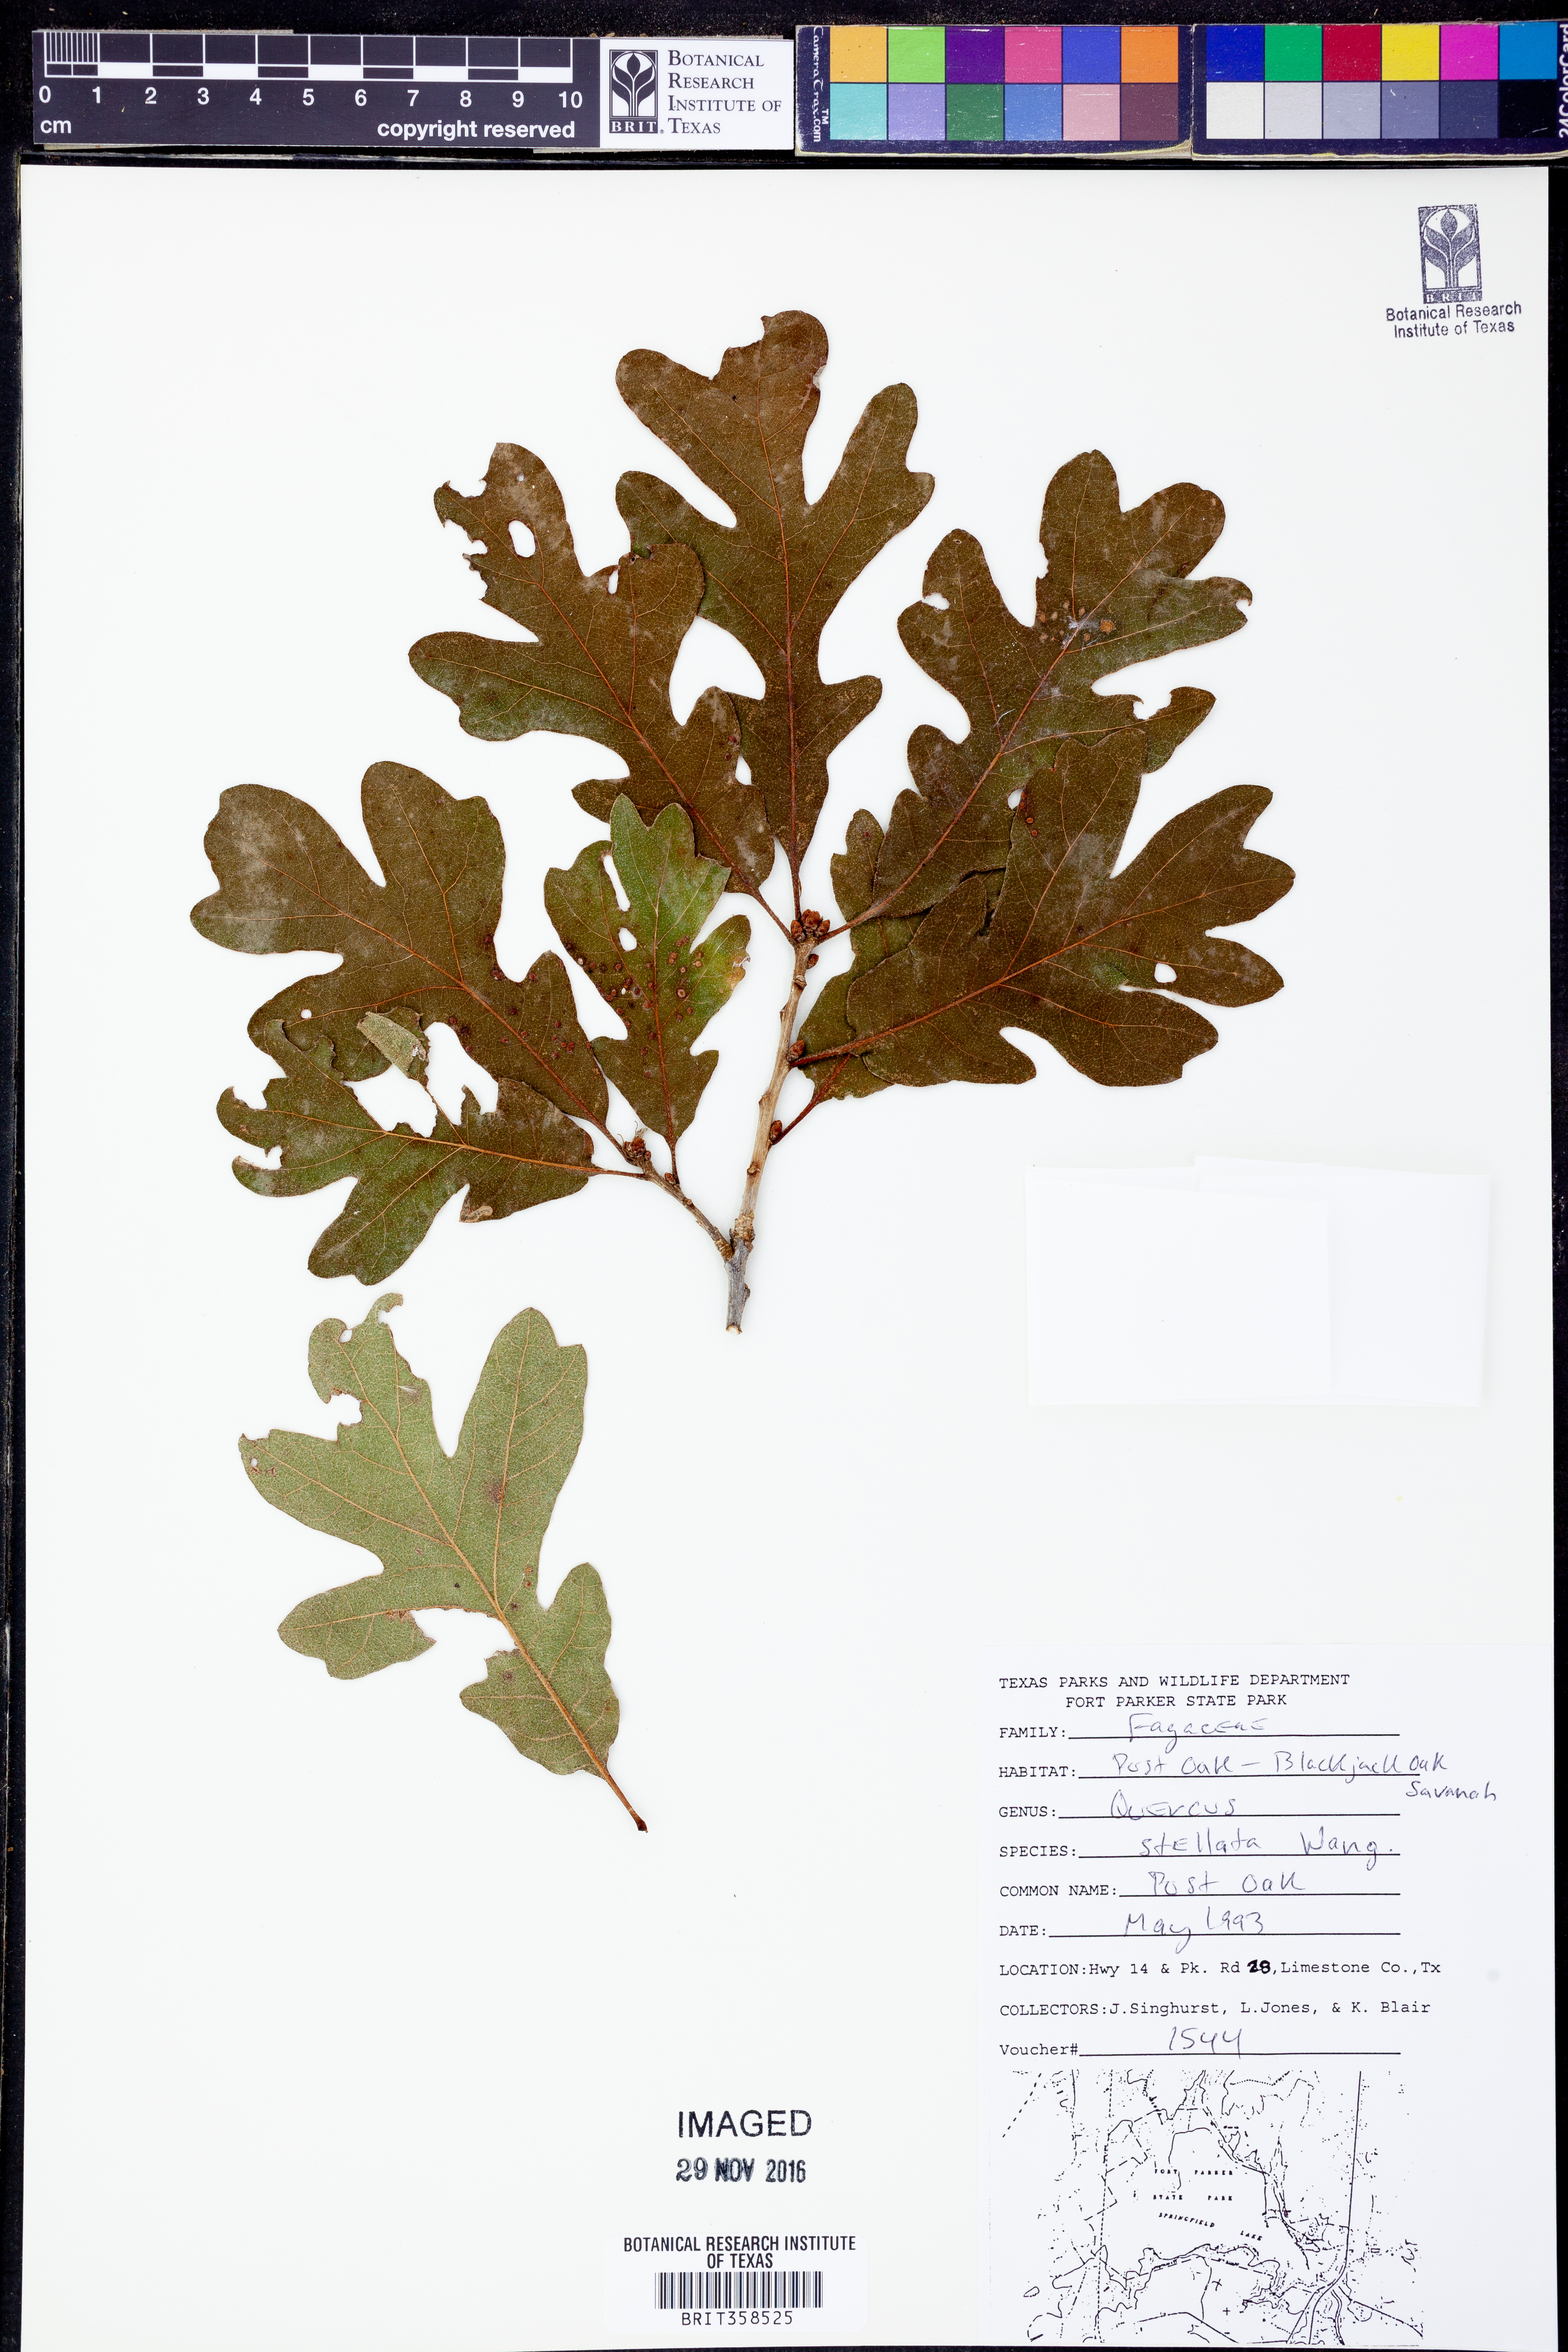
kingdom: Plantae
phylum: Tracheophyta
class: Magnoliopsida
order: Fagales
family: Fagaceae
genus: Quercus
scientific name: Quercus stellata
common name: Post oak
